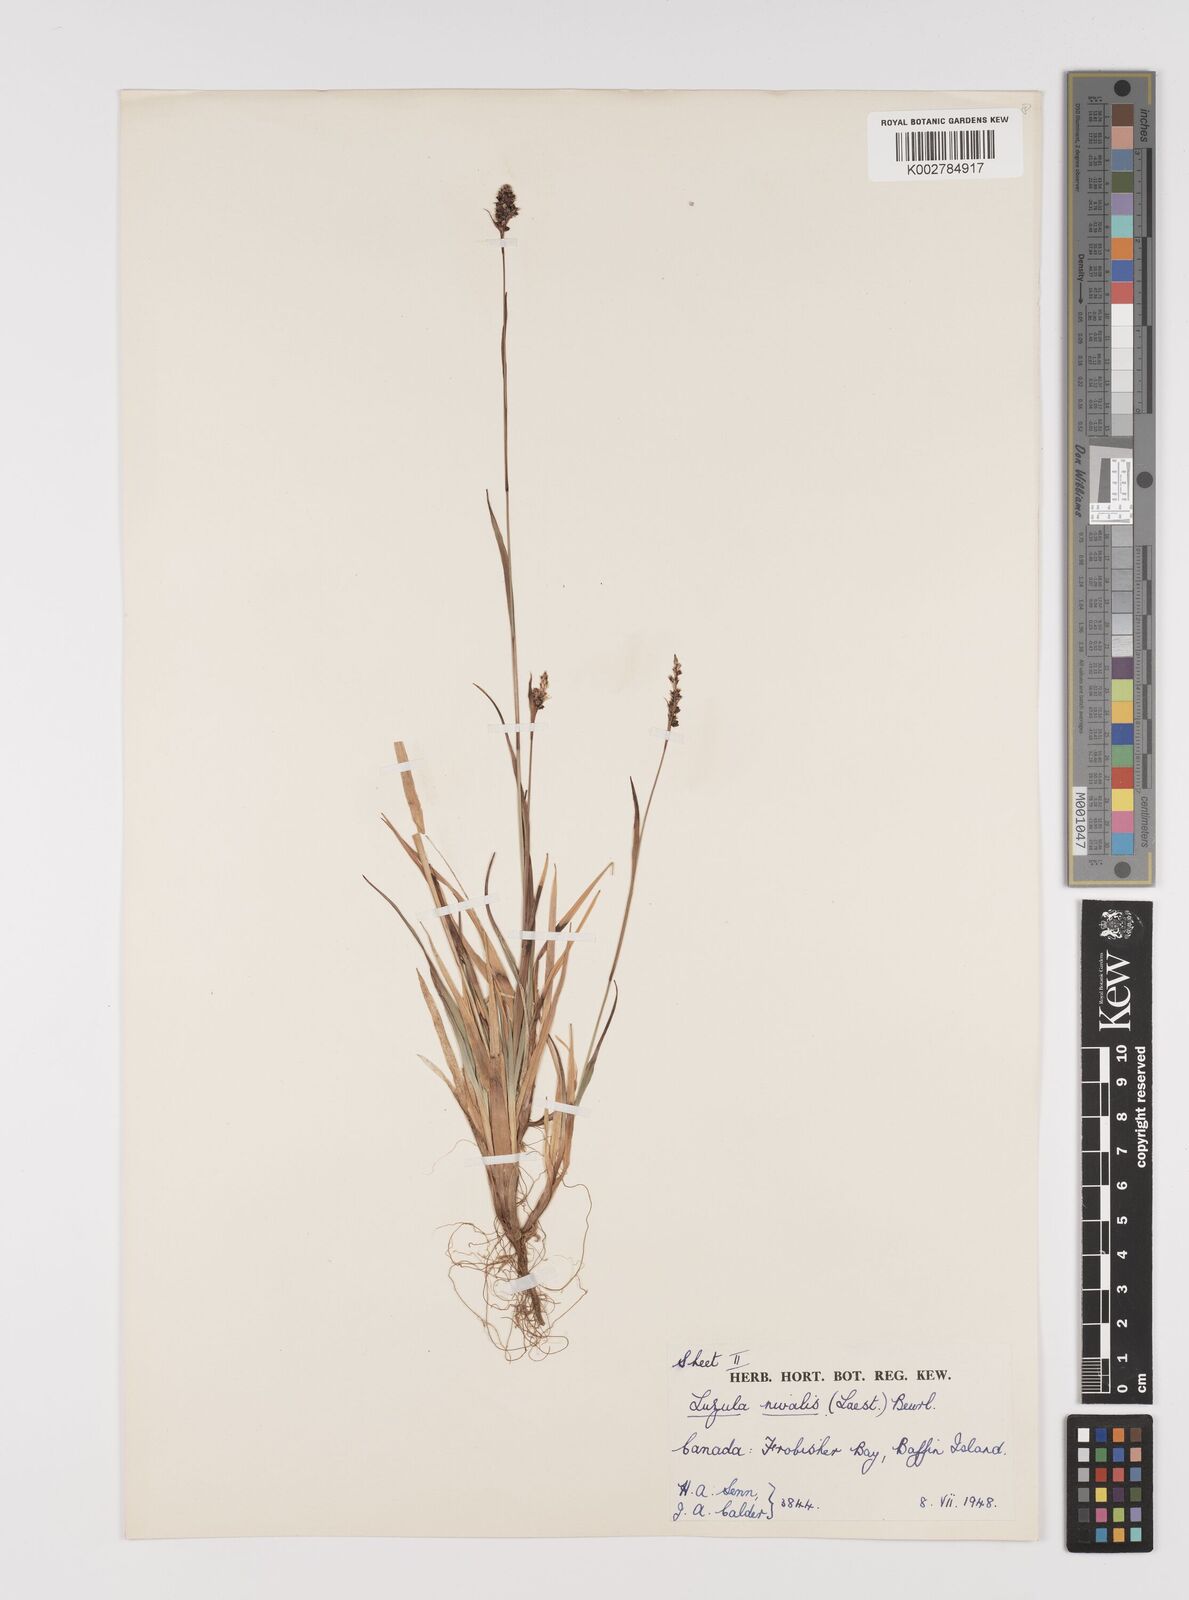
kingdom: Plantae
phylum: Tracheophyta
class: Liliopsida
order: Poales
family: Juncaceae
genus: Luzula
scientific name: Luzula nivalis
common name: Arctic woodrush
